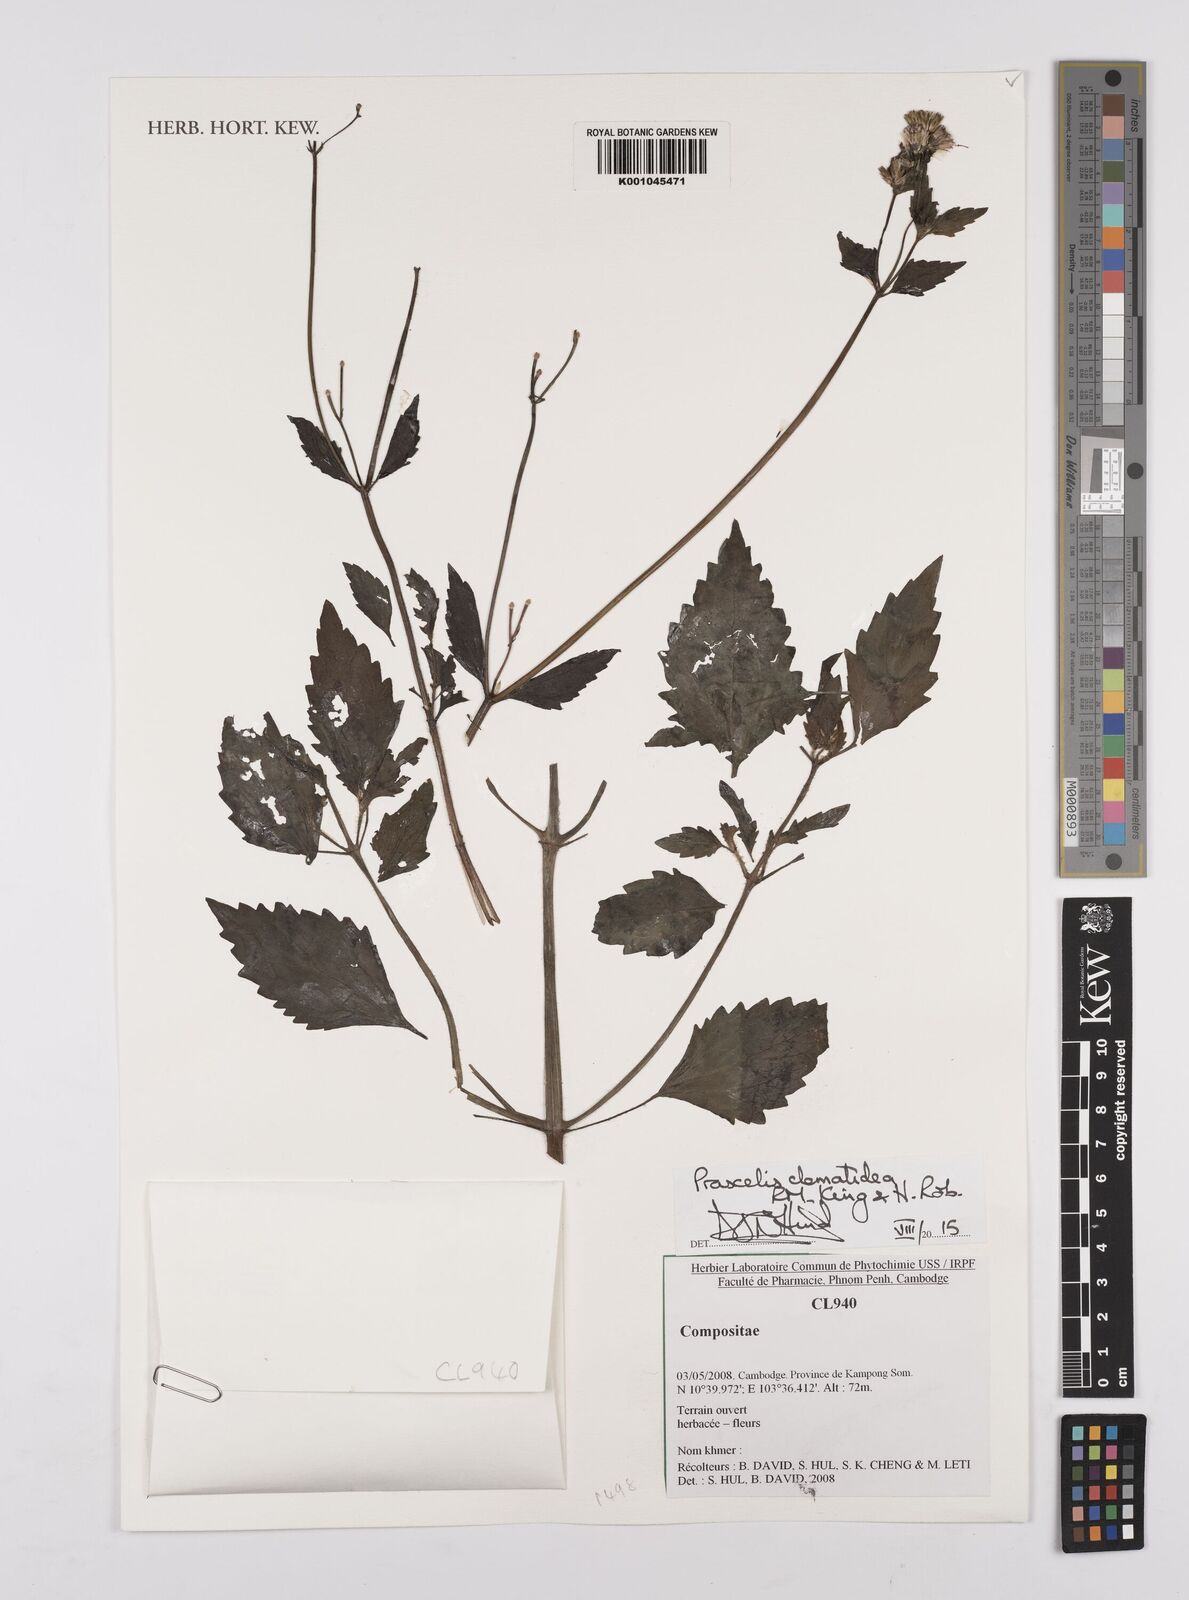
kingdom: Plantae
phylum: Tracheophyta
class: Magnoliopsida
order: Asterales
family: Asteraceae
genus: Praxelis
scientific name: Praxelis clematidea
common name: Praxelis
